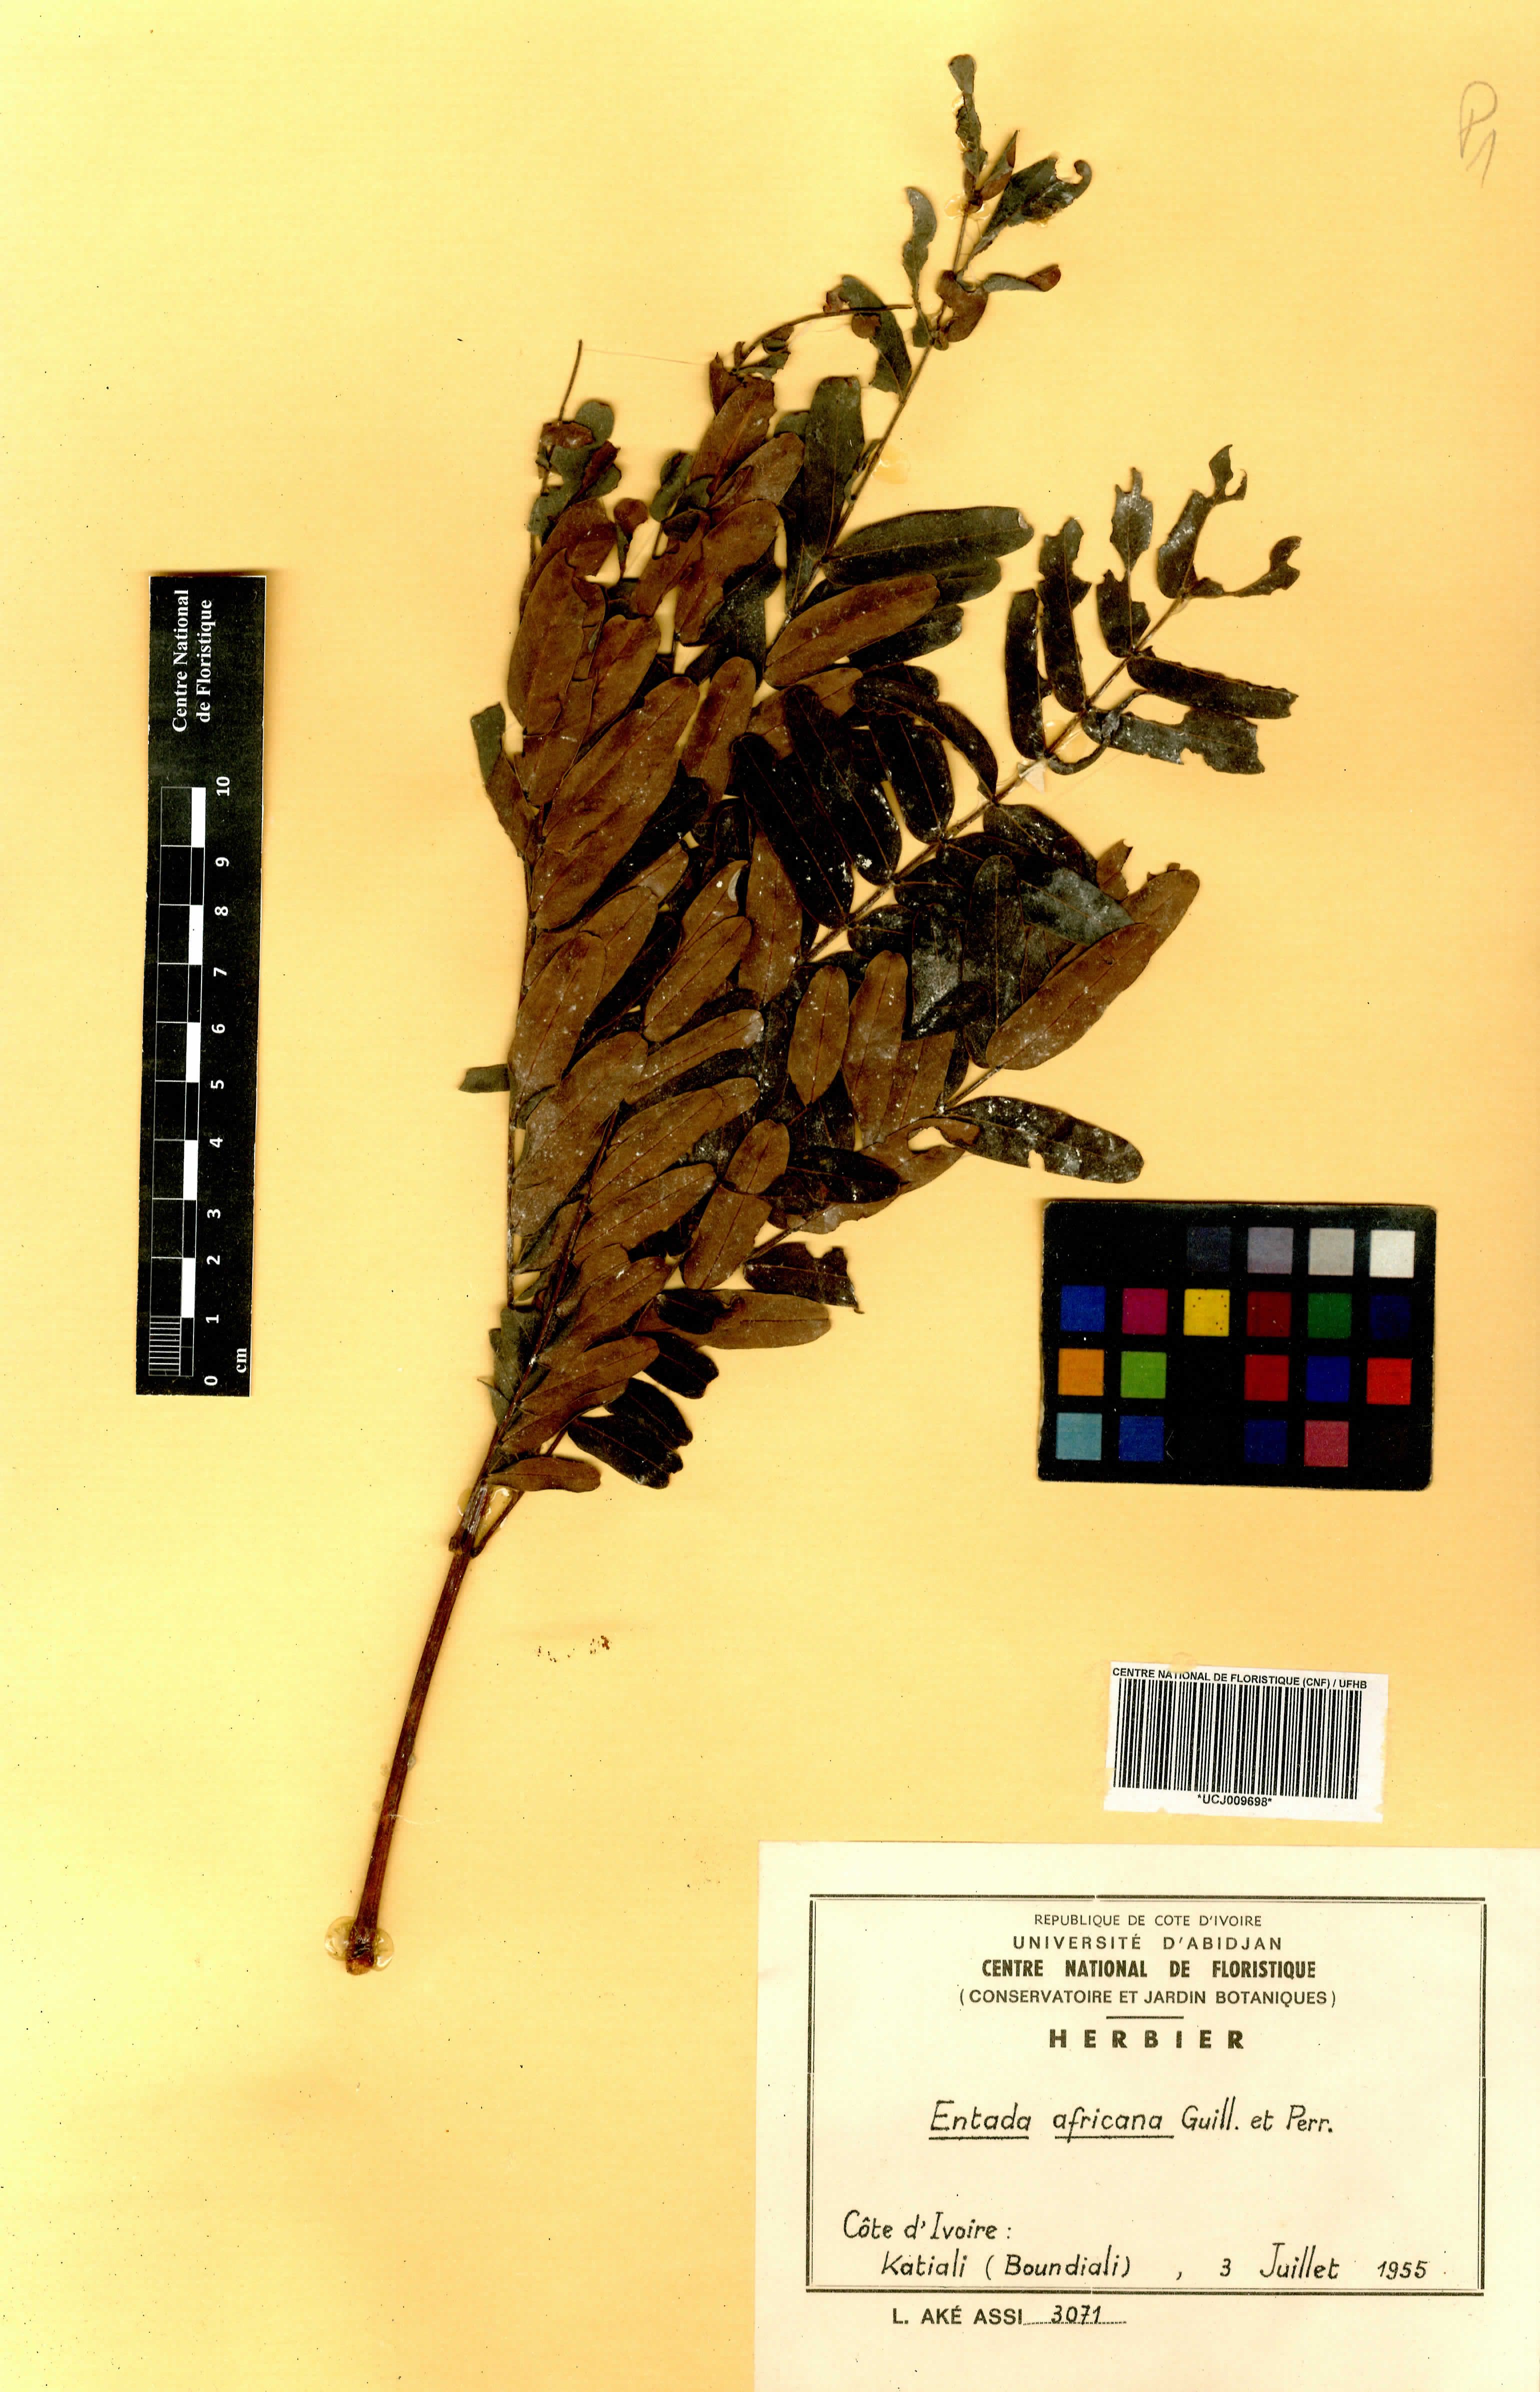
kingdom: Plantae
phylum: Tracheophyta
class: Magnoliopsida
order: Fabales
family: Fabaceae
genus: Entada
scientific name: Entada africana
